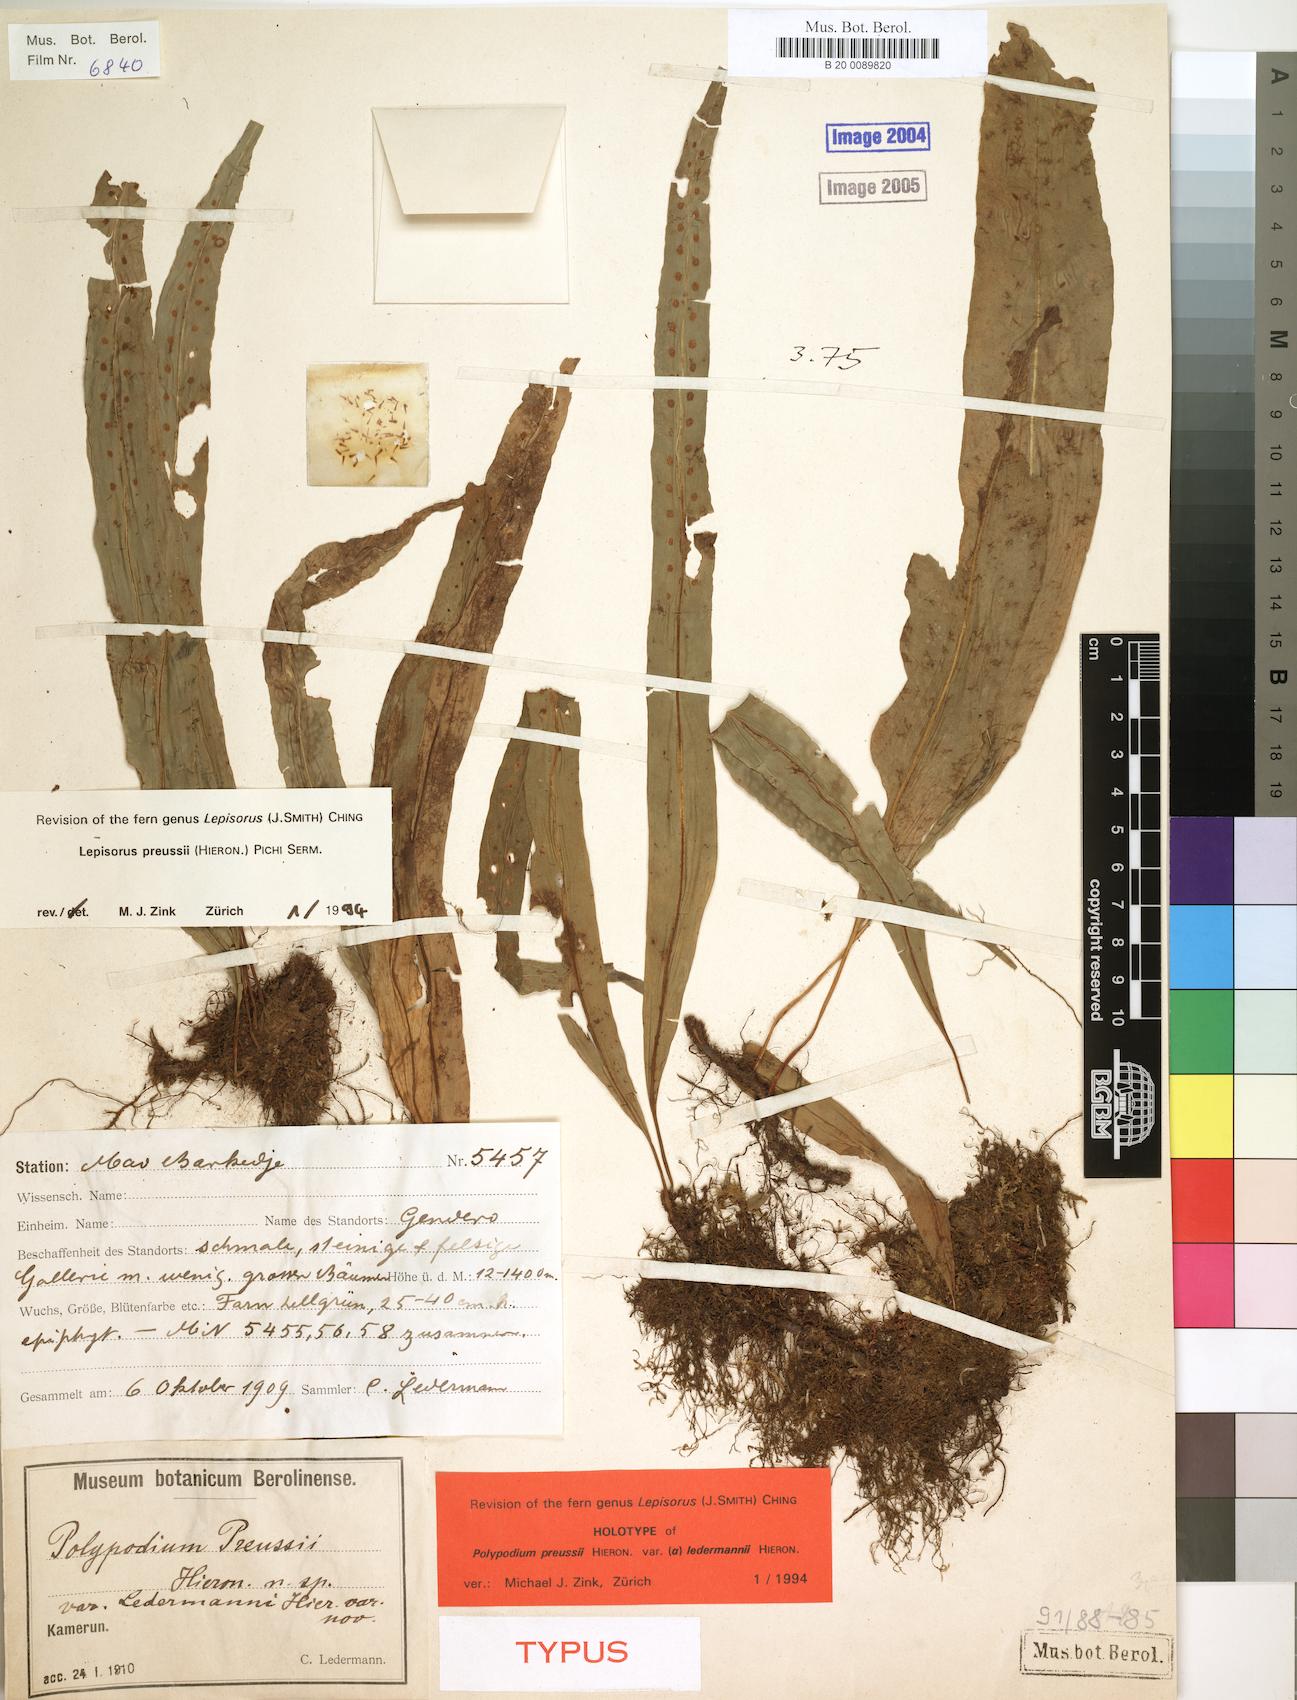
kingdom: Plantae
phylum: Tracheophyta
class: Polypodiopsida
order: Polypodiales
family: Polypodiaceae
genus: Lepisorus
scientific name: Lepisorus excavatus
